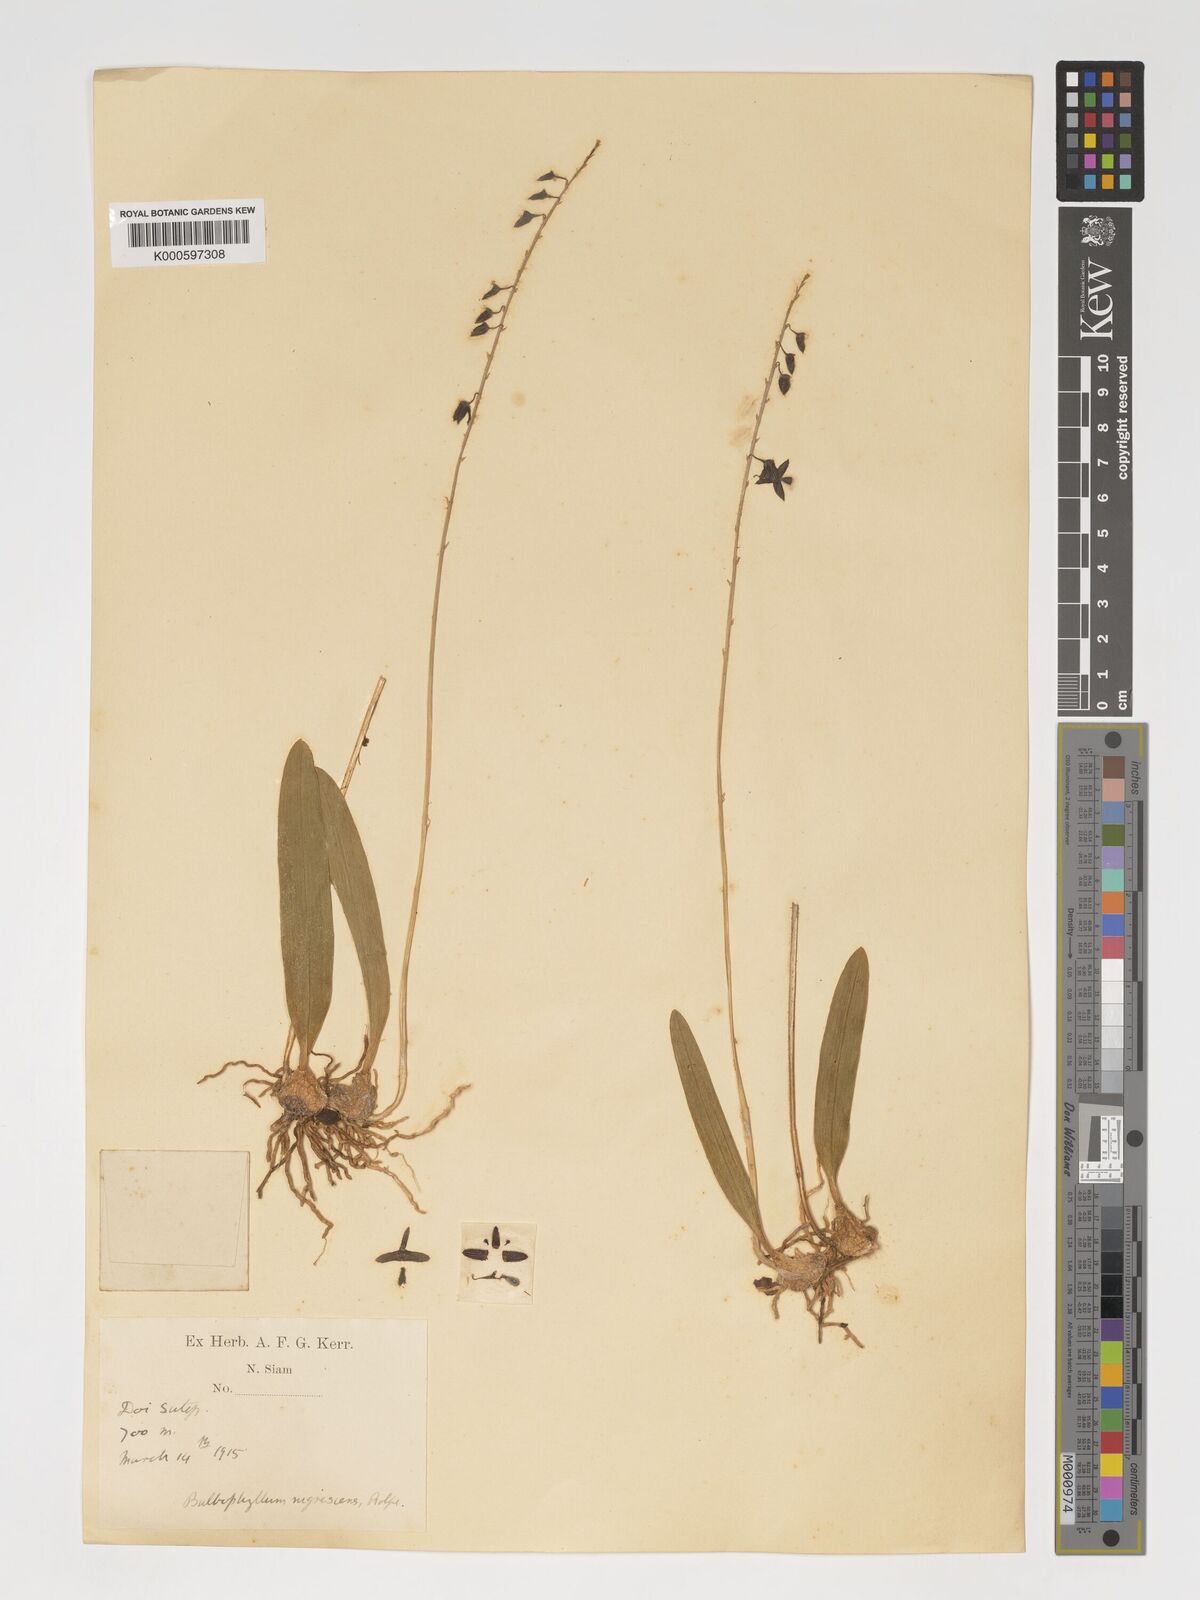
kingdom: Plantae
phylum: Tracheophyta
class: Liliopsida
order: Asparagales
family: Orchidaceae
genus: Bulbophyllum
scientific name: Bulbophyllum nigrescens
